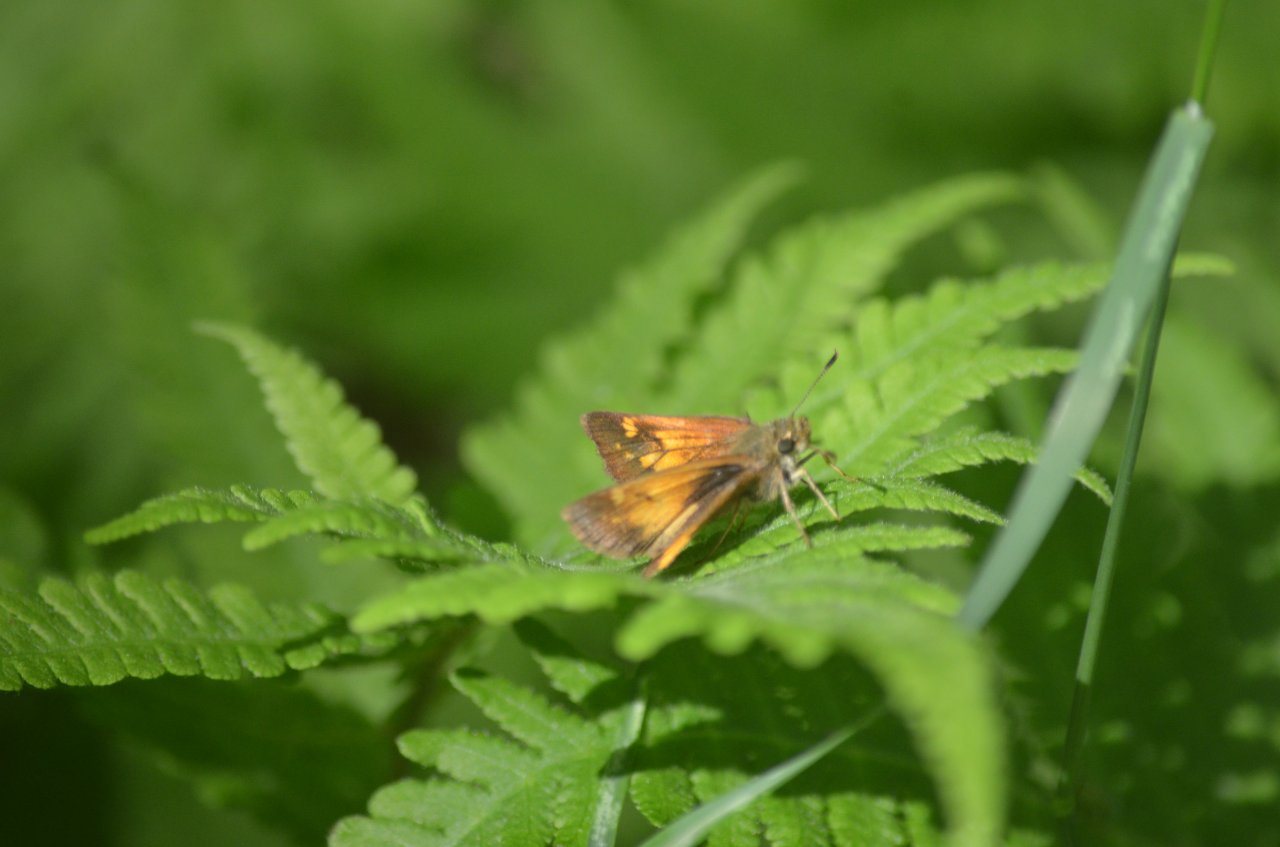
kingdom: Animalia
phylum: Arthropoda
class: Insecta
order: Lepidoptera
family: Hesperiidae
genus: Lon
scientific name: Lon hobomok
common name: Hobomok Skipper
